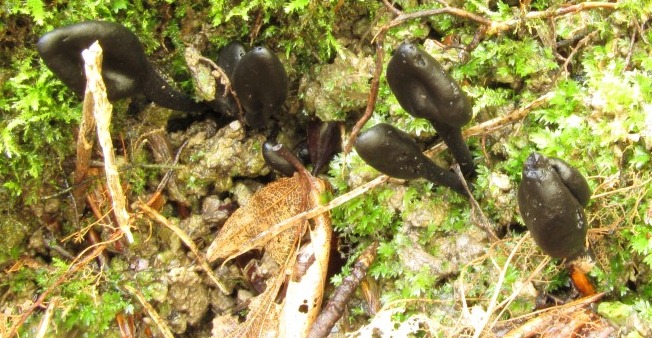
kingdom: Fungi
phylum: Ascomycota
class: Geoglossomycetes
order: Geoglossales
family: Geoglossaceae
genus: Trichoglossum
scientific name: Trichoglossum hirsutum
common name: håret jordtunge
